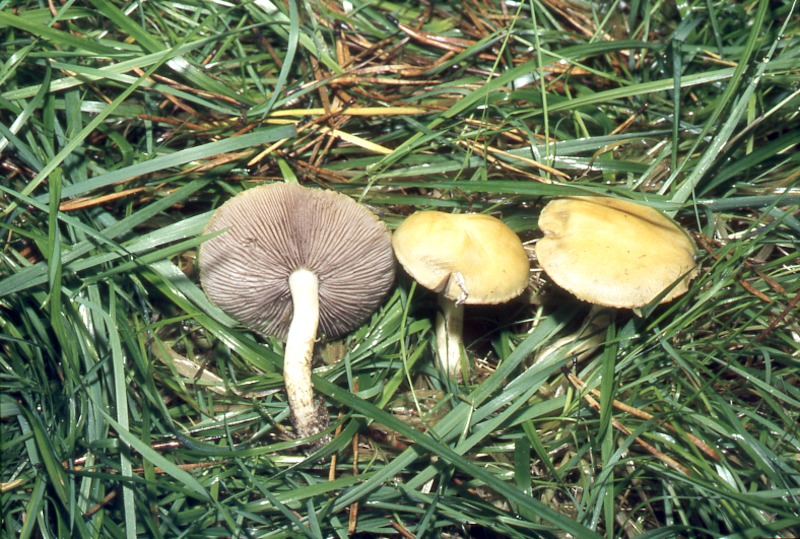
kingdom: Fungi
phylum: Basidiomycota
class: Agaricomycetes
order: Agaricales
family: Hymenogastraceae
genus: Psilocybe
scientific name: Psilocybe coronilla
